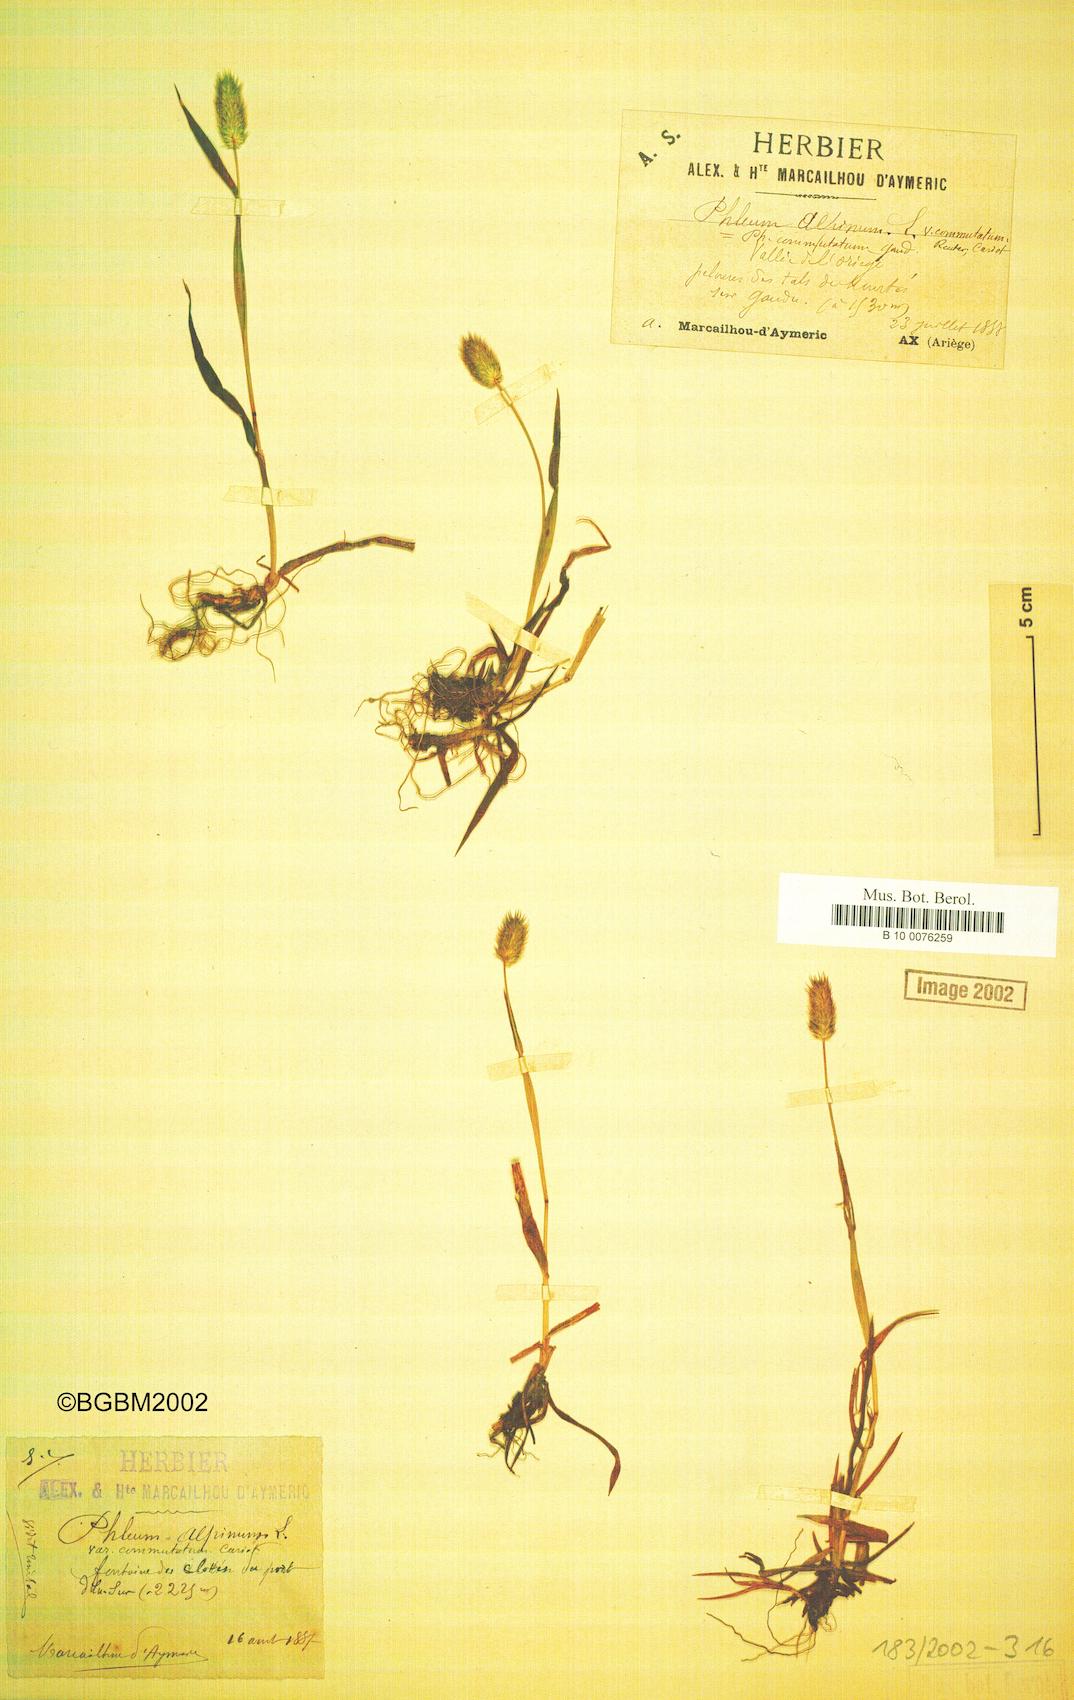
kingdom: Plantae
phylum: Tracheophyta
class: Liliopsida
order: Poales
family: Poaceae
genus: Phleum
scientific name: Phleum alpinum
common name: Alpine cat's-tail
